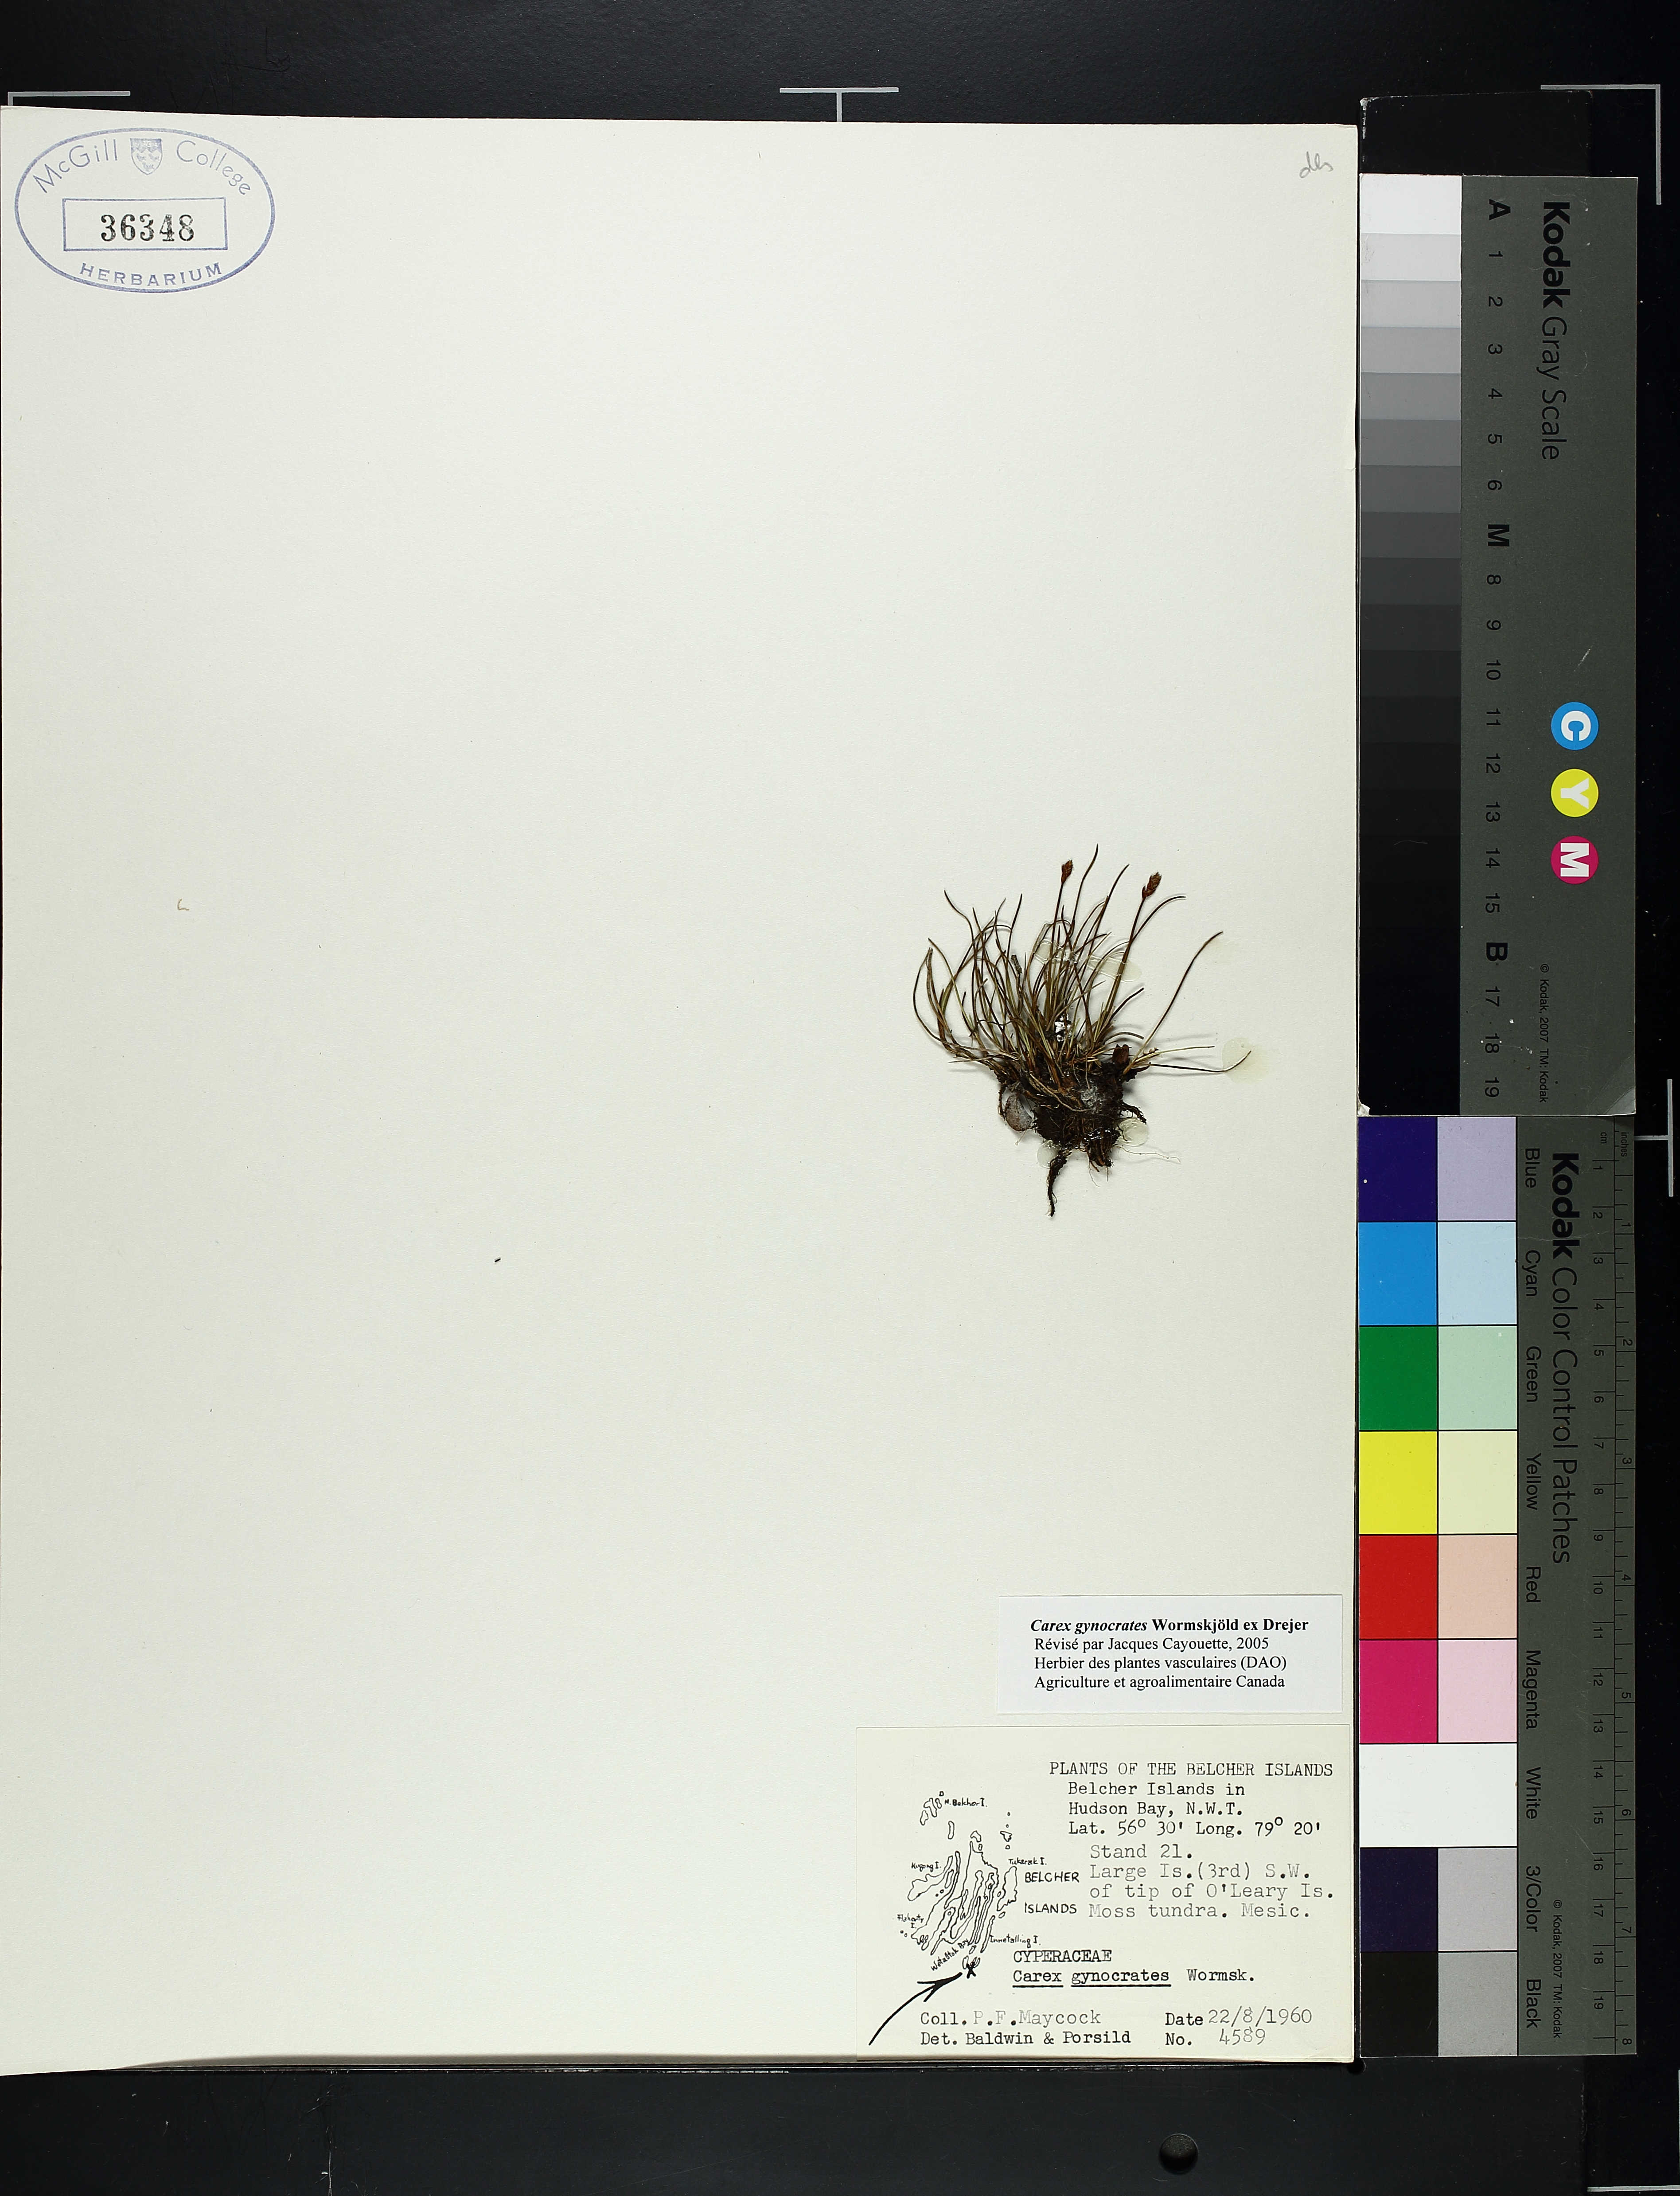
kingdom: Plantae
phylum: Tracheophyta
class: Liliopsida
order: Poales
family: Cyperaceae
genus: Carex
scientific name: Carex gynocrates
